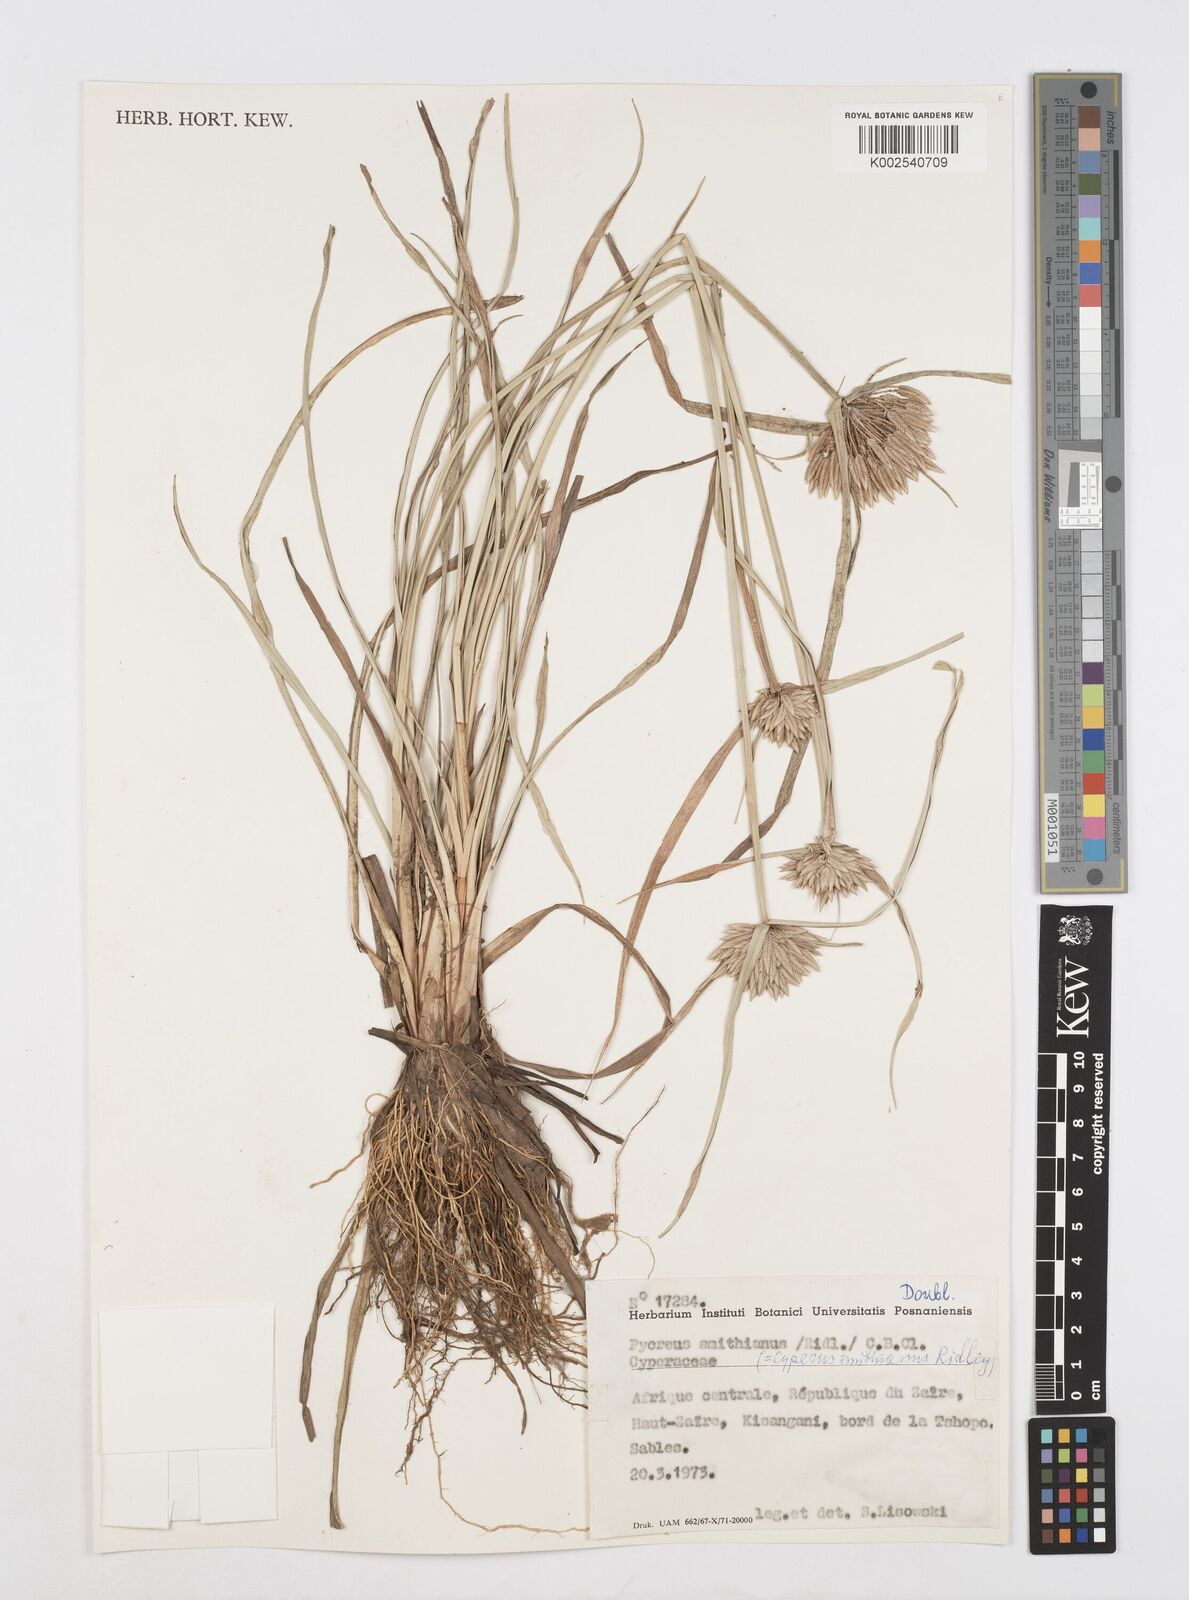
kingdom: Plantae
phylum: Tracheophyta
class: Liliopsida
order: Poales
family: Cyperaceae
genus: Cyperus
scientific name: Cyperus smithianus
